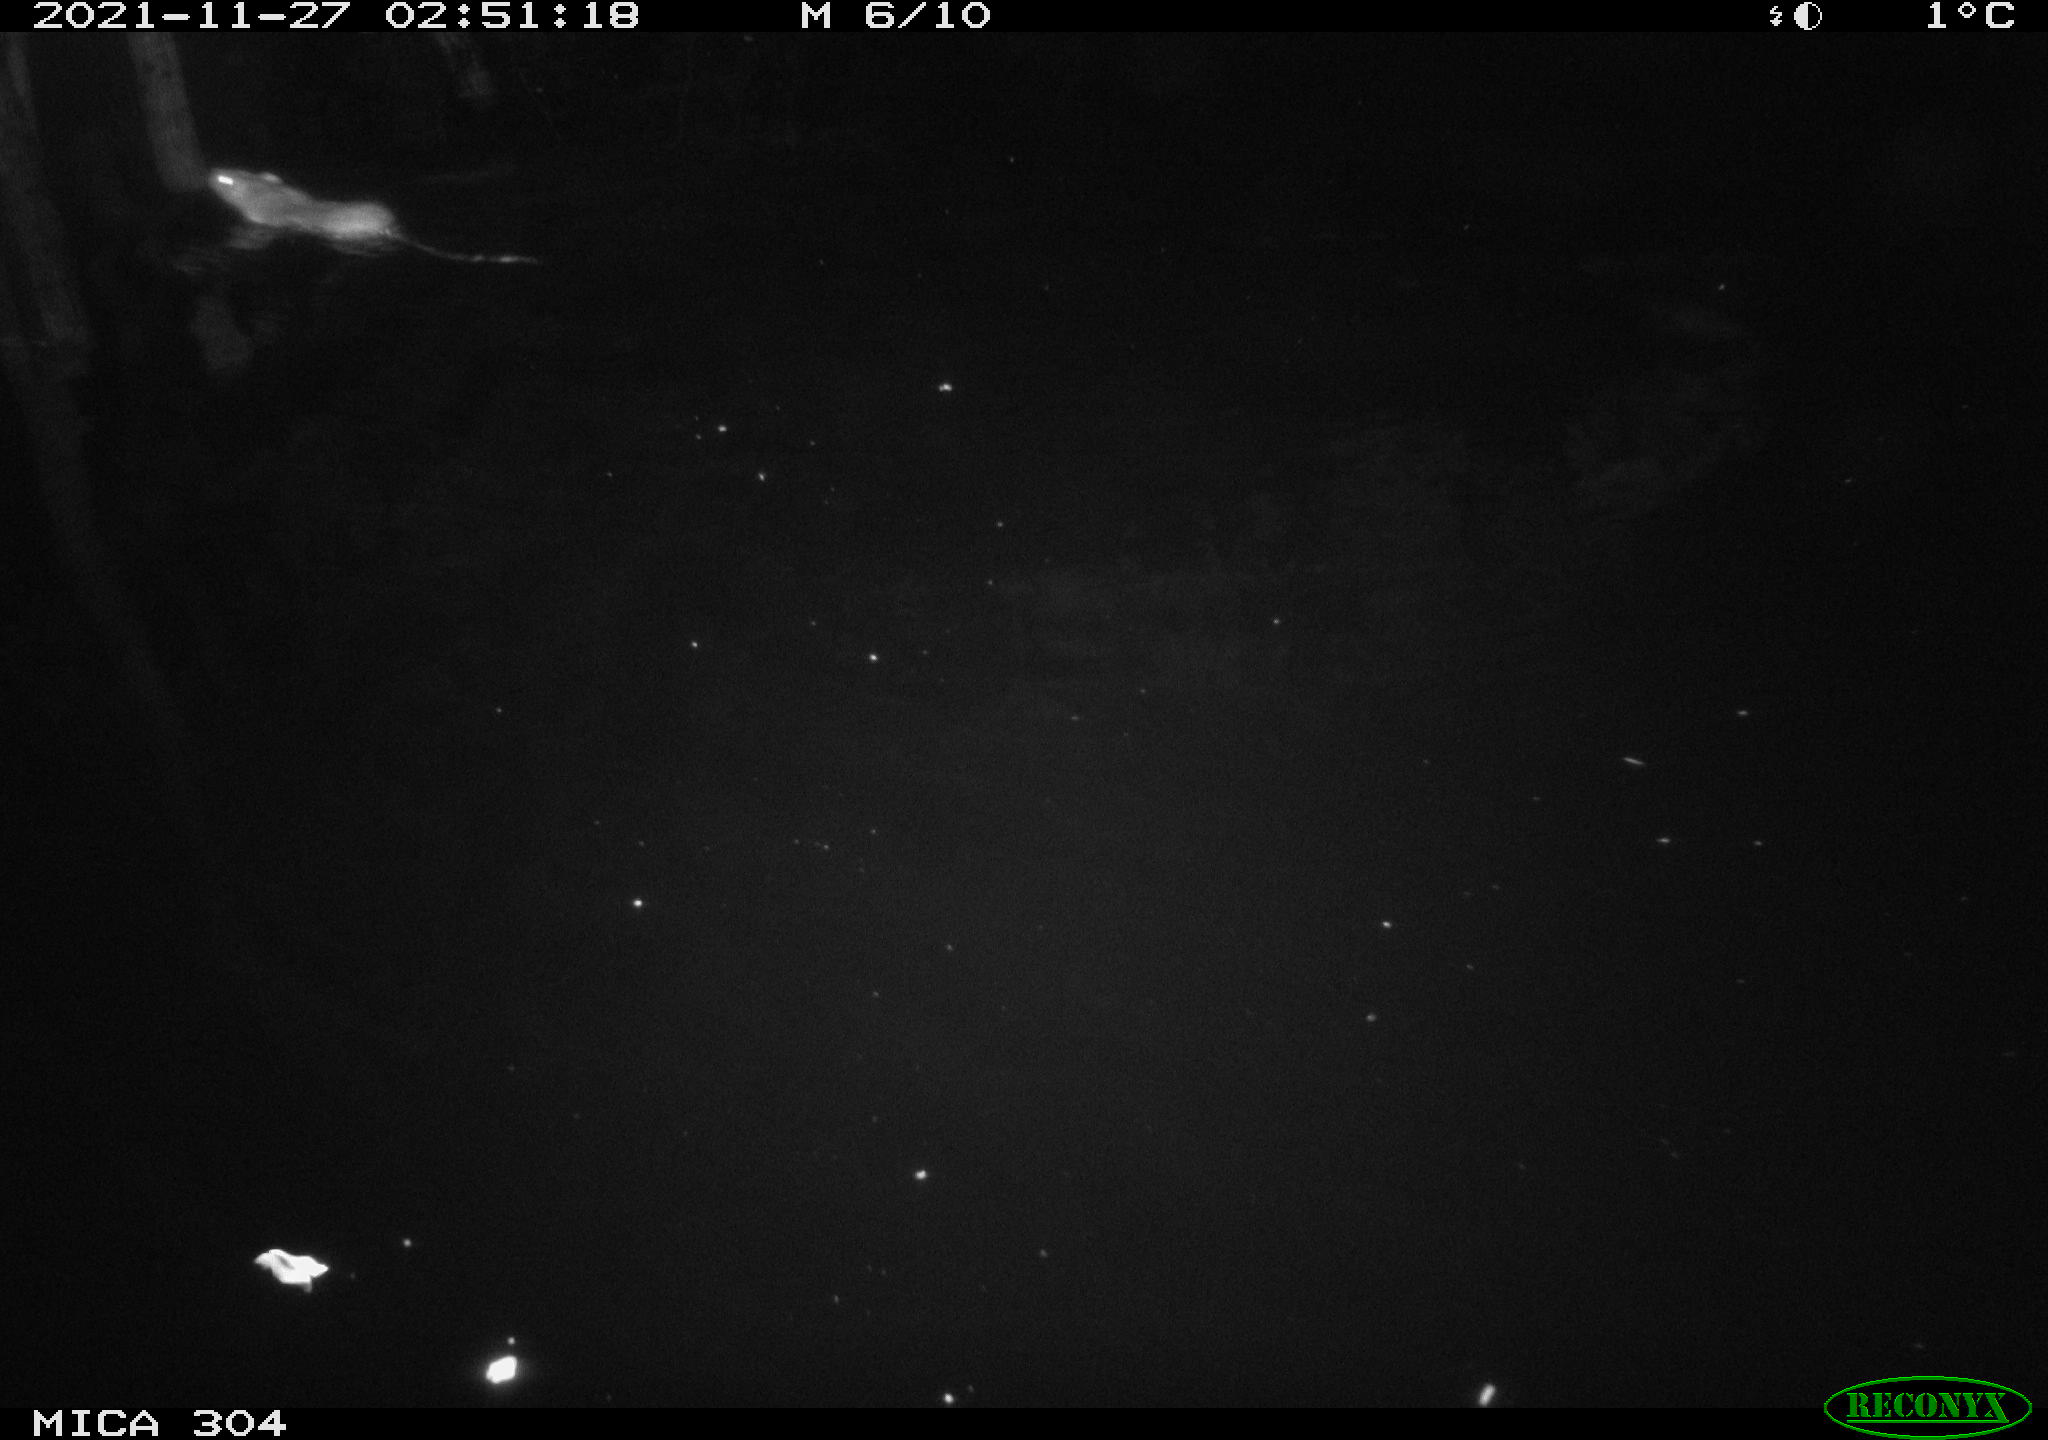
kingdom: Animalia
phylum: Chordata
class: Mammalia
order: Rodentia
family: Muridae
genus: Rattus
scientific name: Rattus norvegicus
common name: Brown rat
